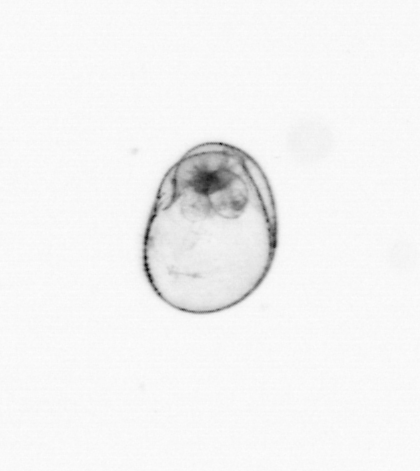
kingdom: Chromista
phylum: Myzozoa
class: Dinophyceae
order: Noctilucales
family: Noctilucaceae
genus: Noctiluca
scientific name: Noctiluca scintillans
